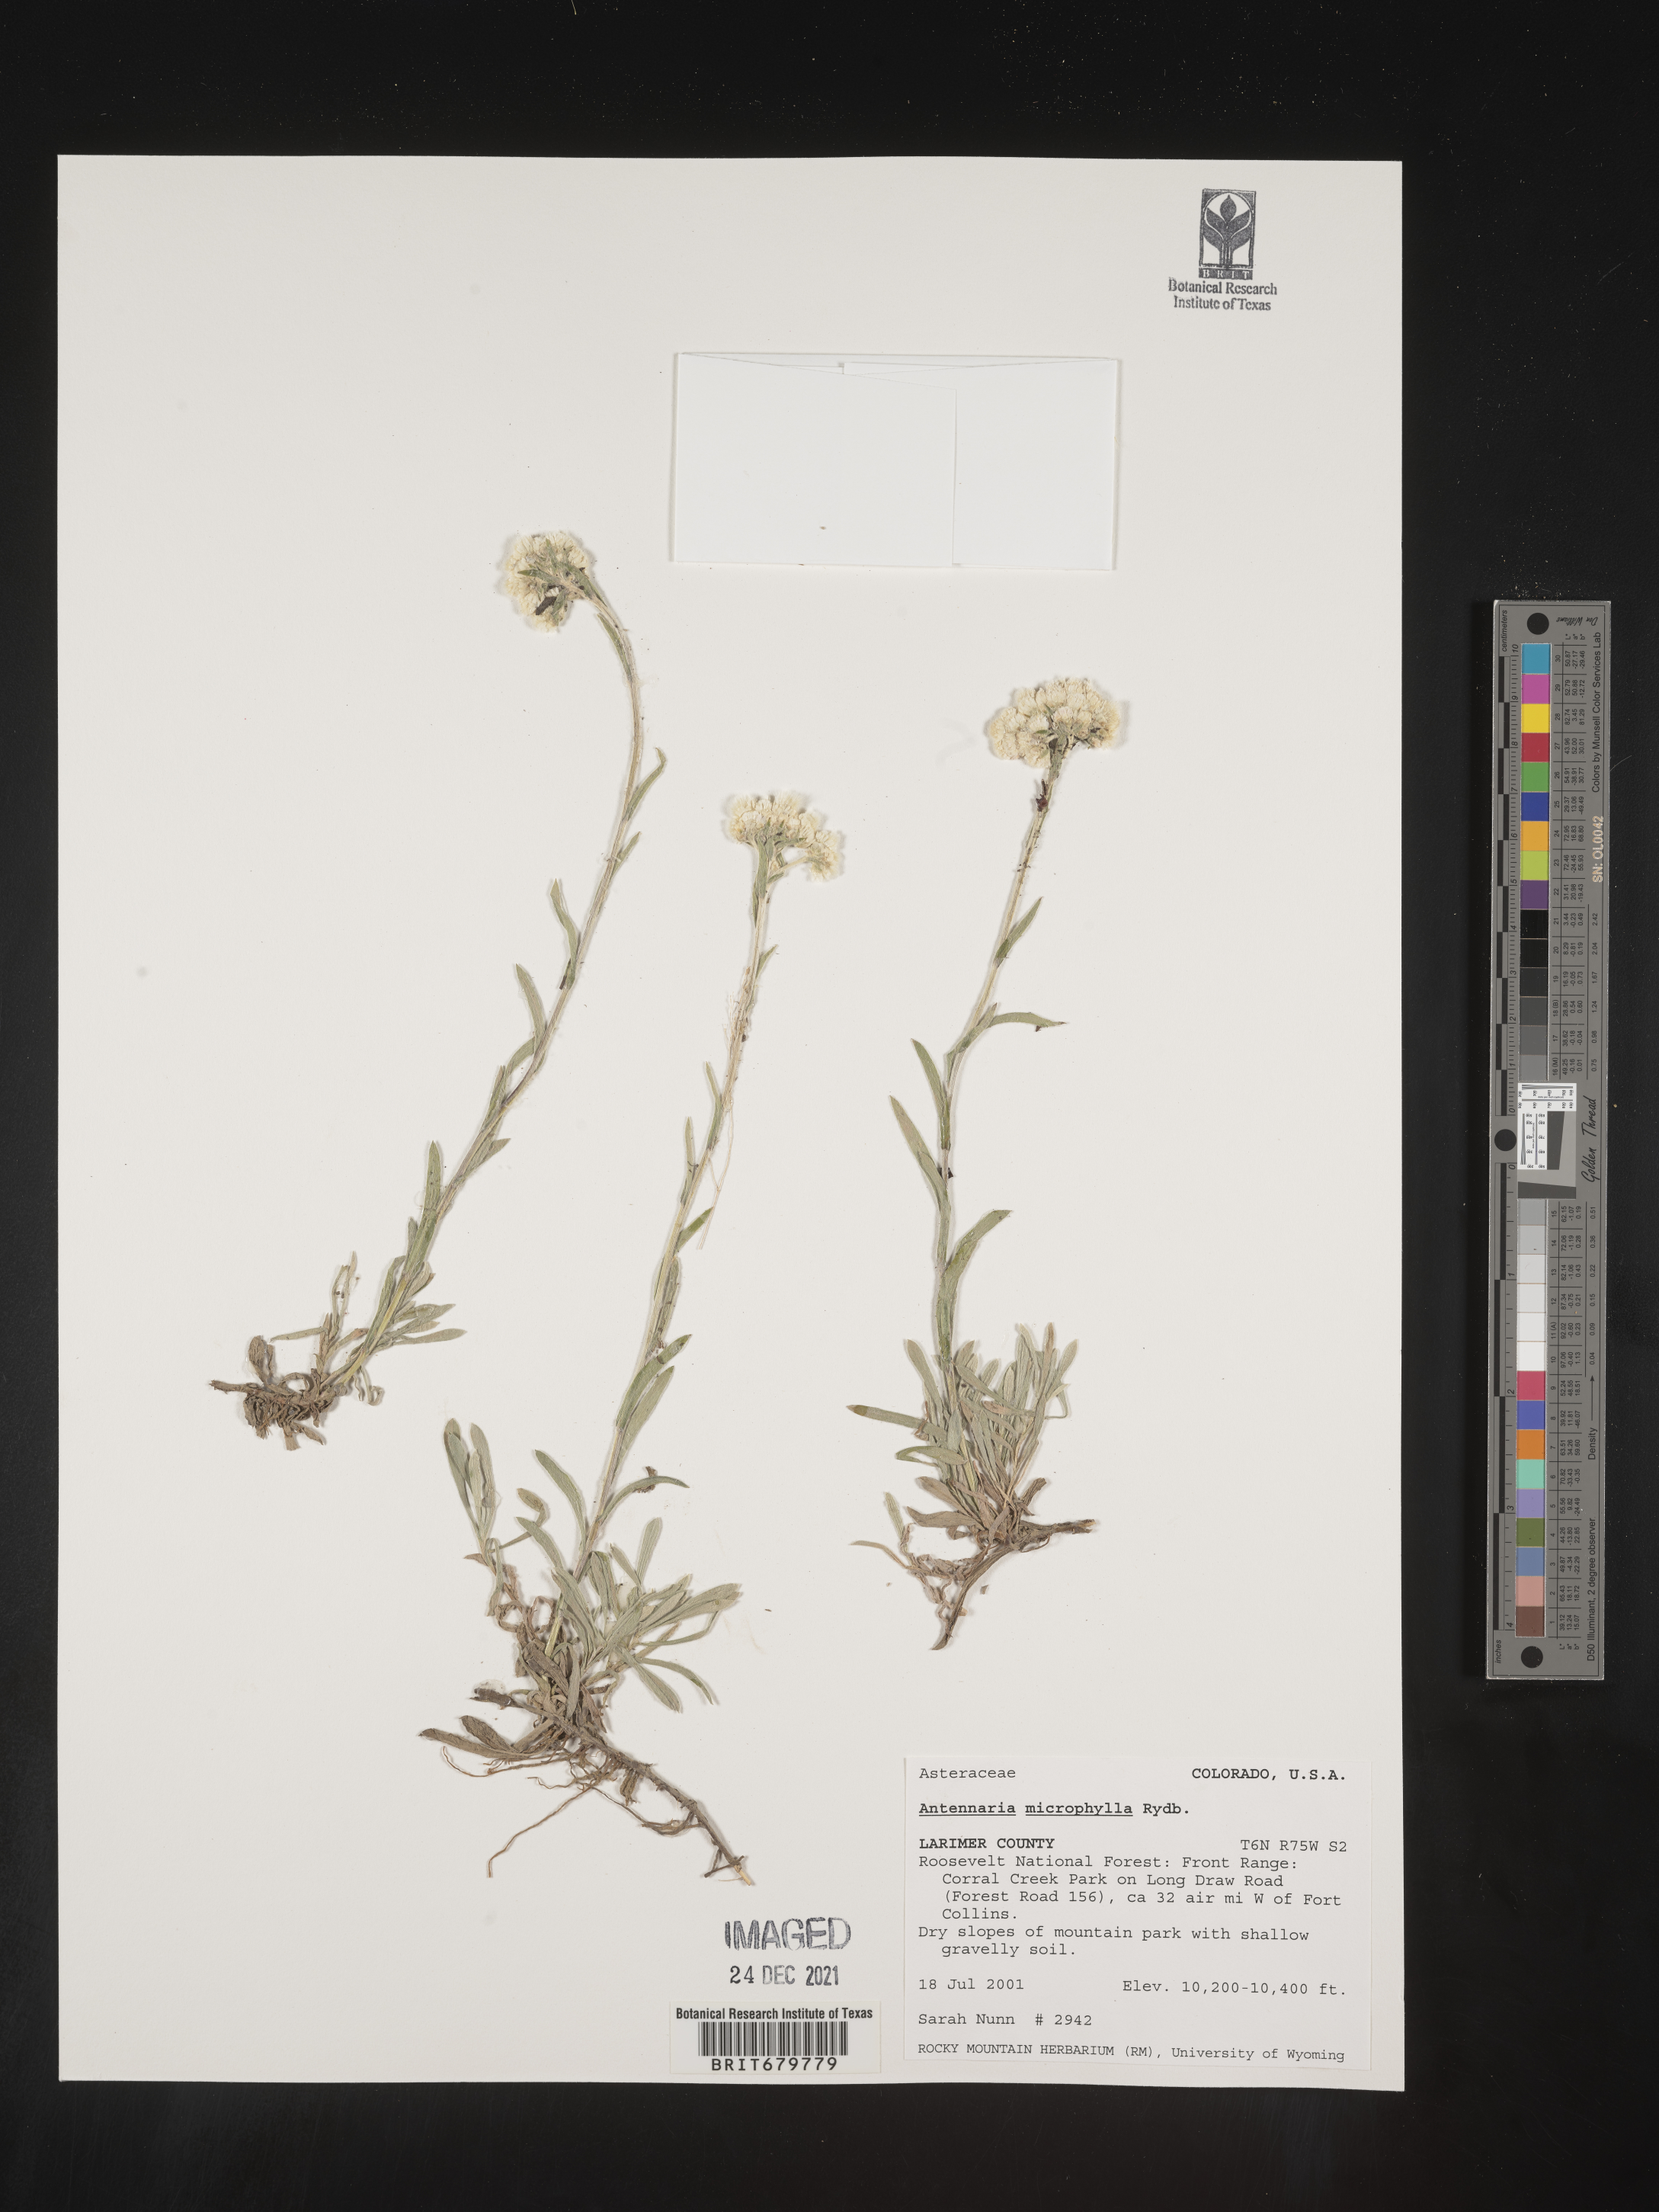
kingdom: Plantae
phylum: Tracheophyta
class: Magnoliopsida
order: Asterales
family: Asteraceae
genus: Antennaria
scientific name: Antennaria microphylla
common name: Littleleaf pussytoes
